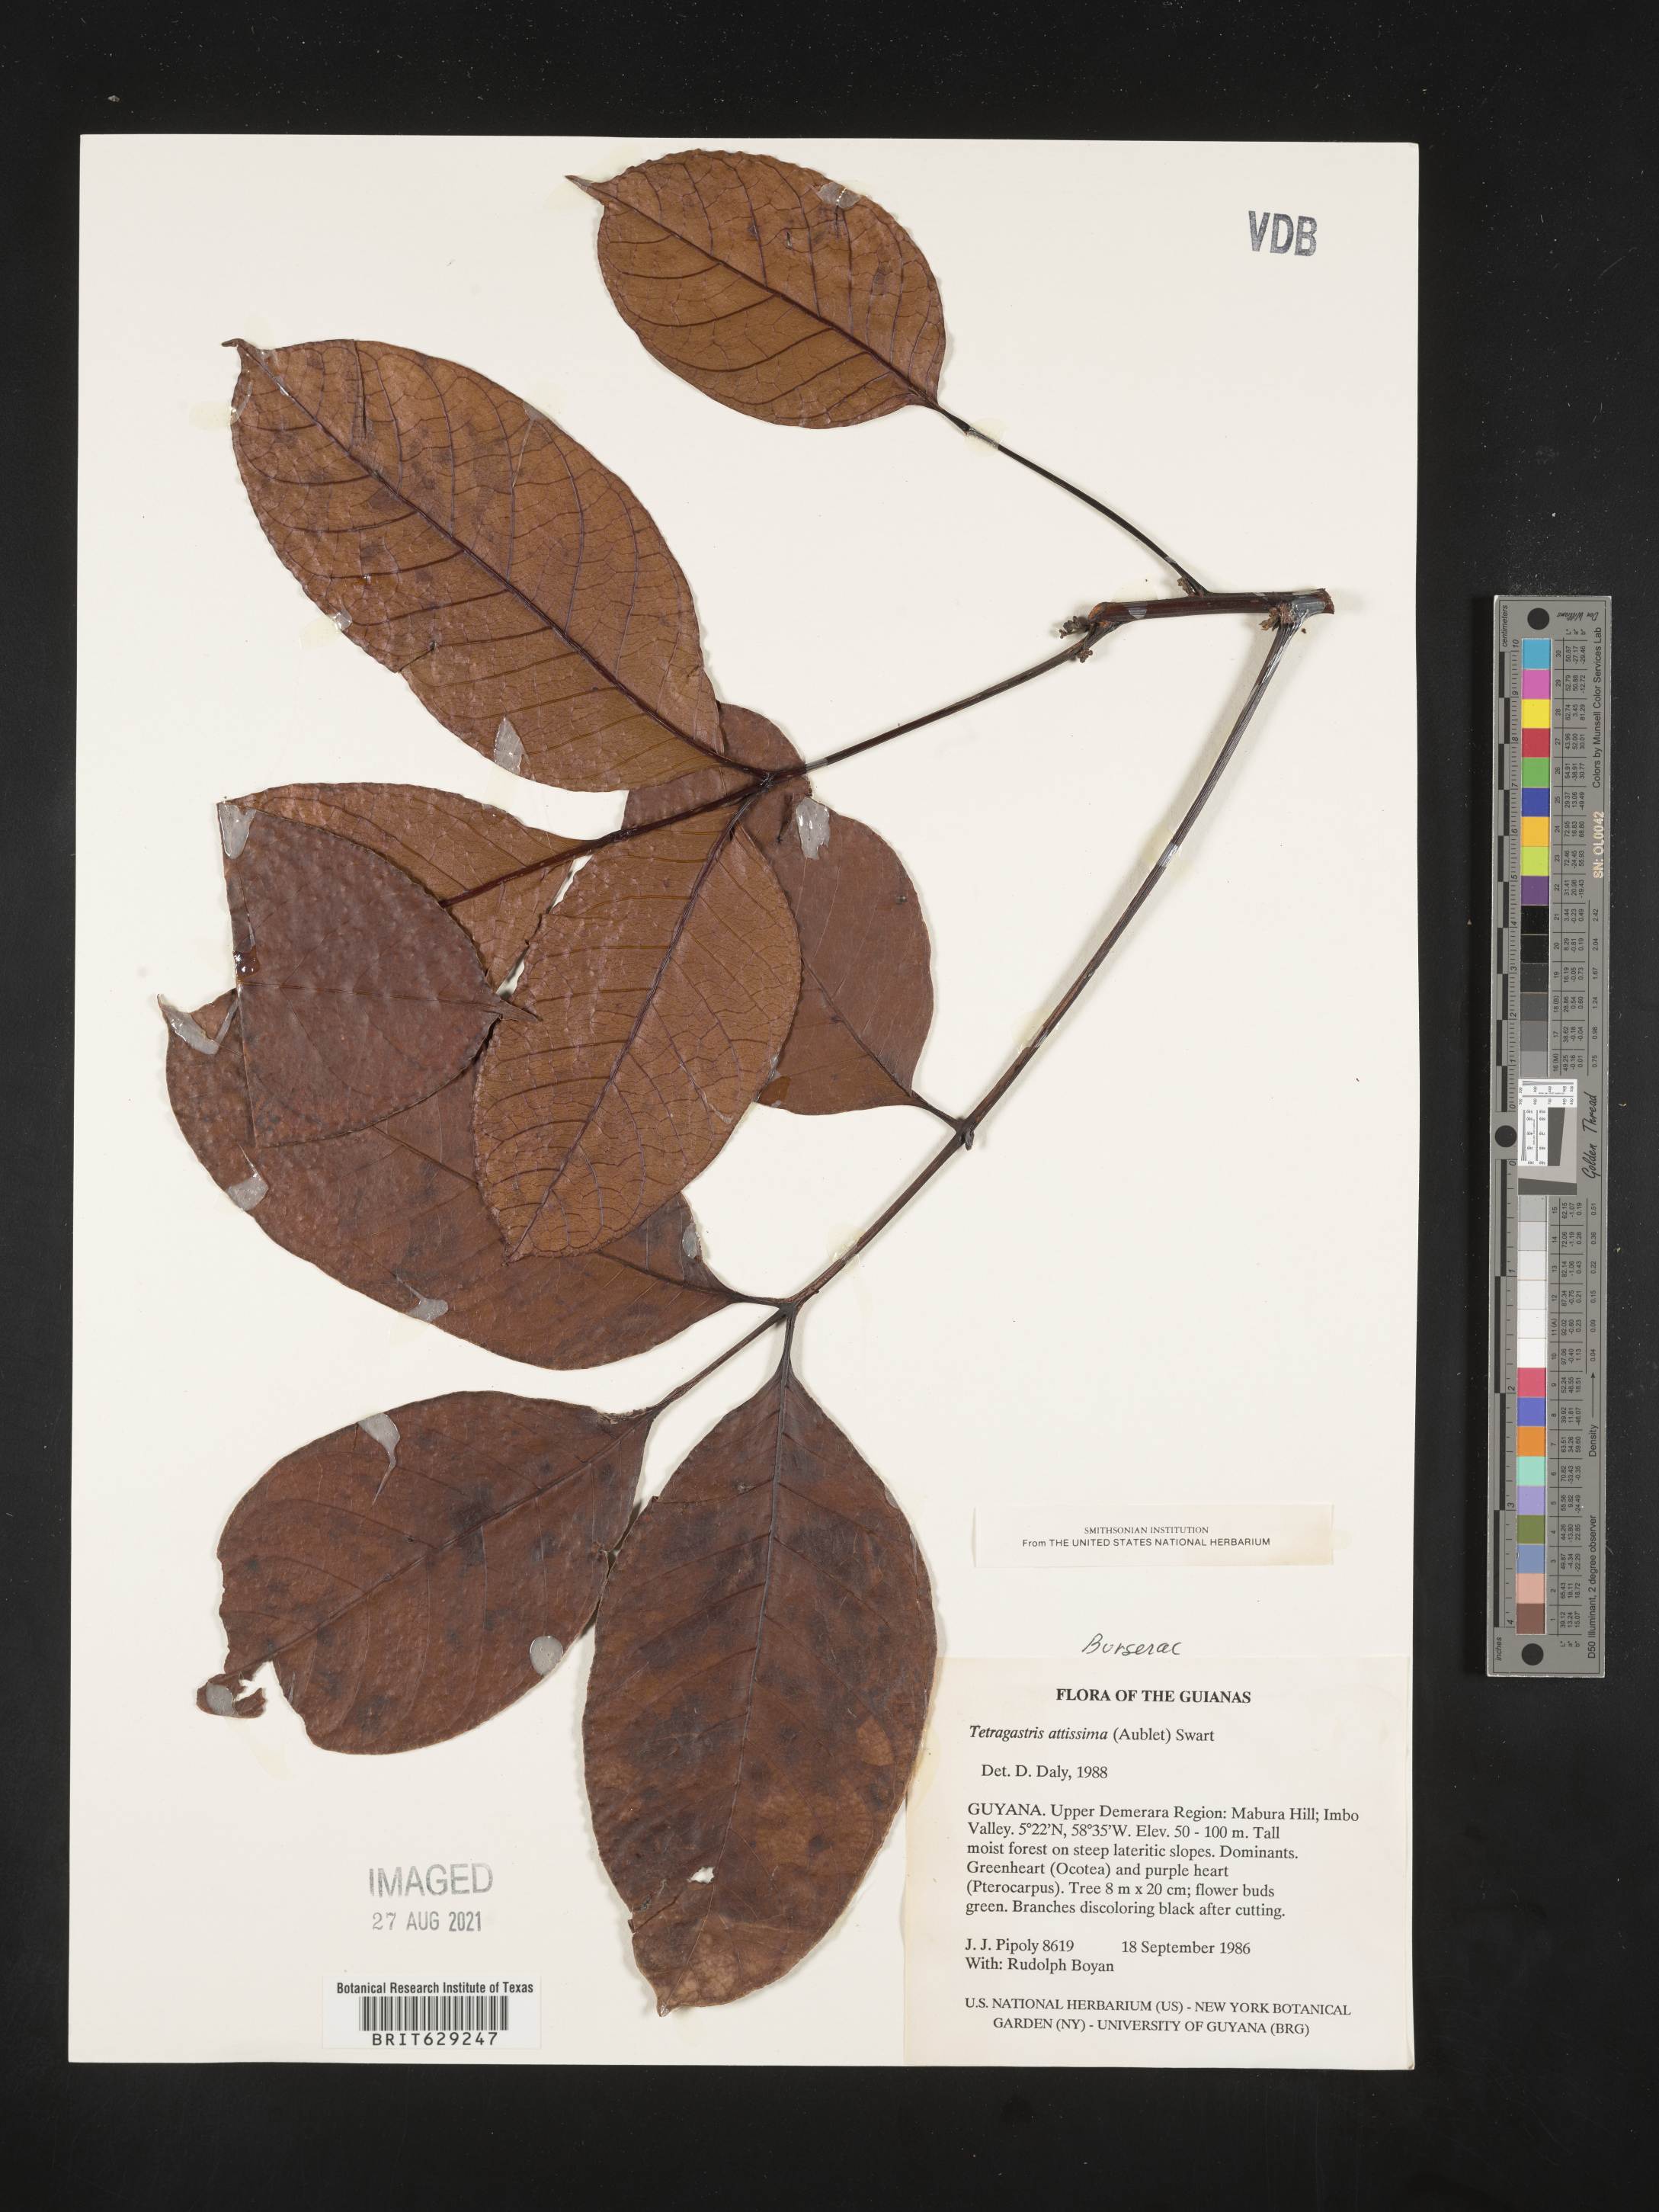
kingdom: Plantae
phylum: Tracheophyta
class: Magnoliopsida
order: Sapindales
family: Burseraceae
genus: Tetragastris
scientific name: Tetragastris altissima
